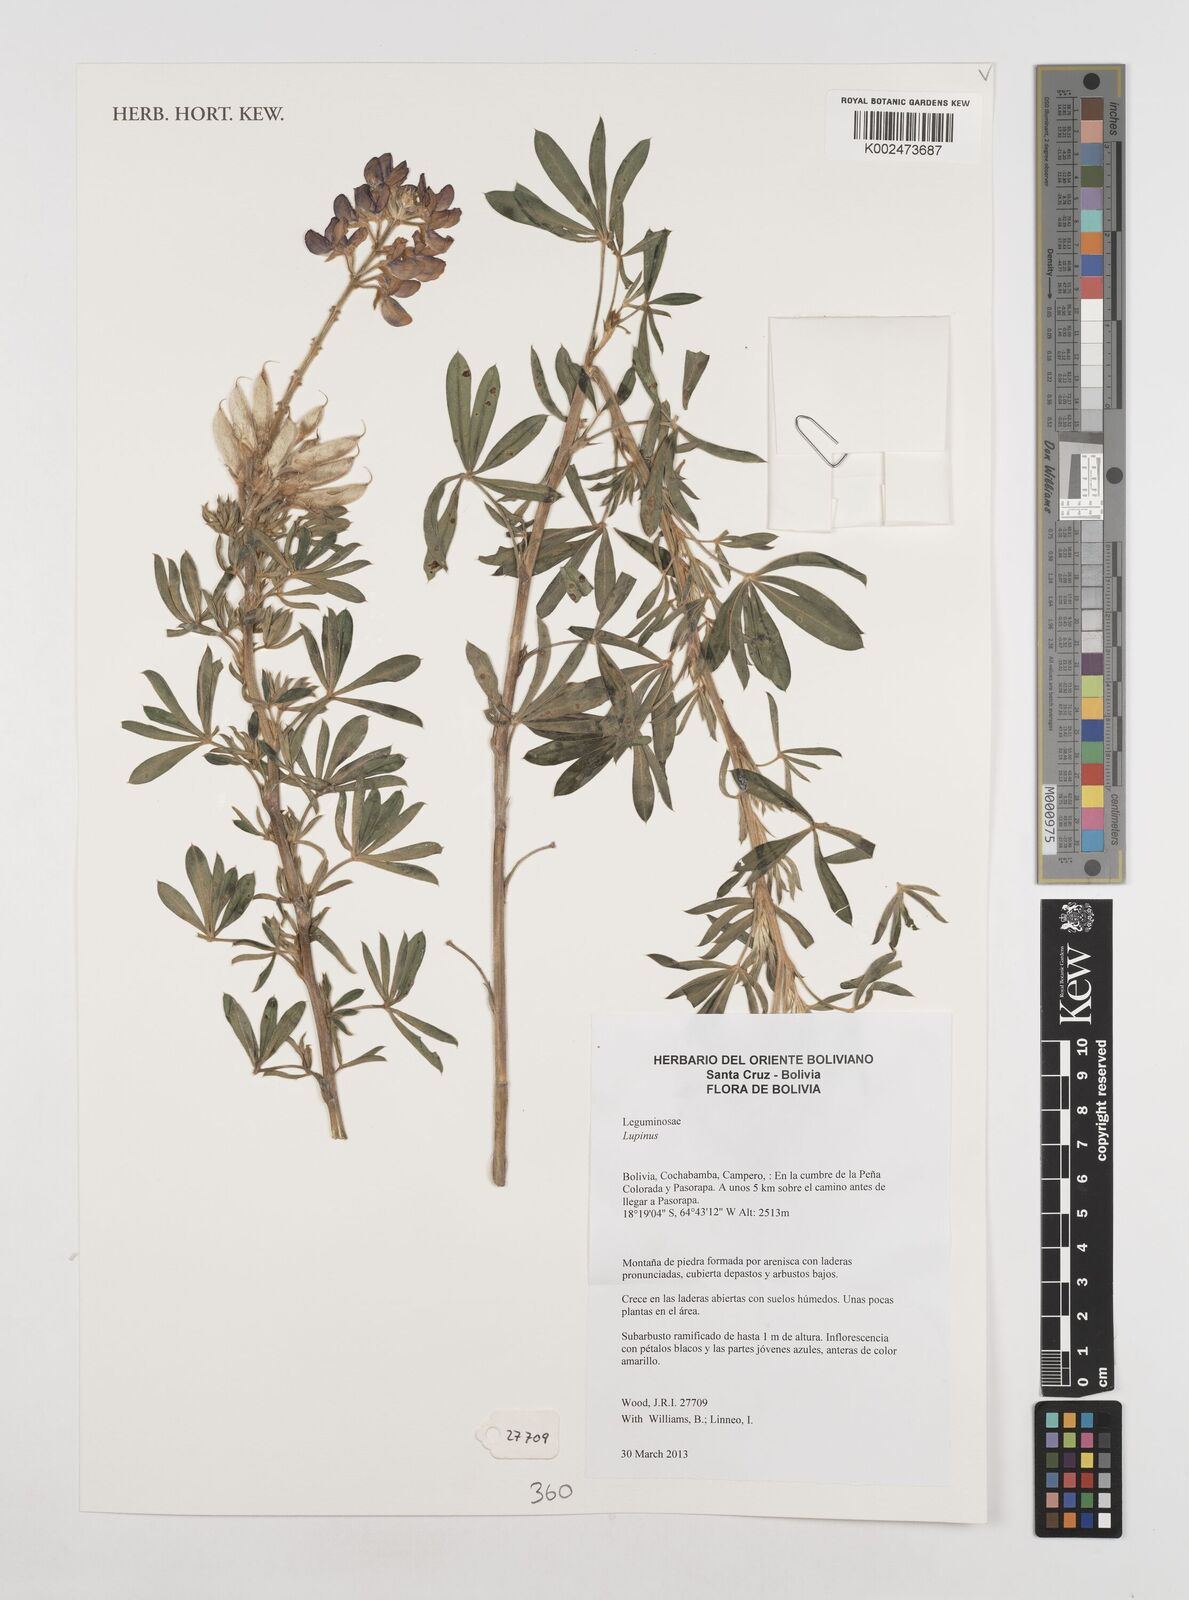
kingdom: Plantae
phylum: Tracheophyta
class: Magnoliopsida
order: Fabales
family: Fabaceae
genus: Lupinus
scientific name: Lupinus
